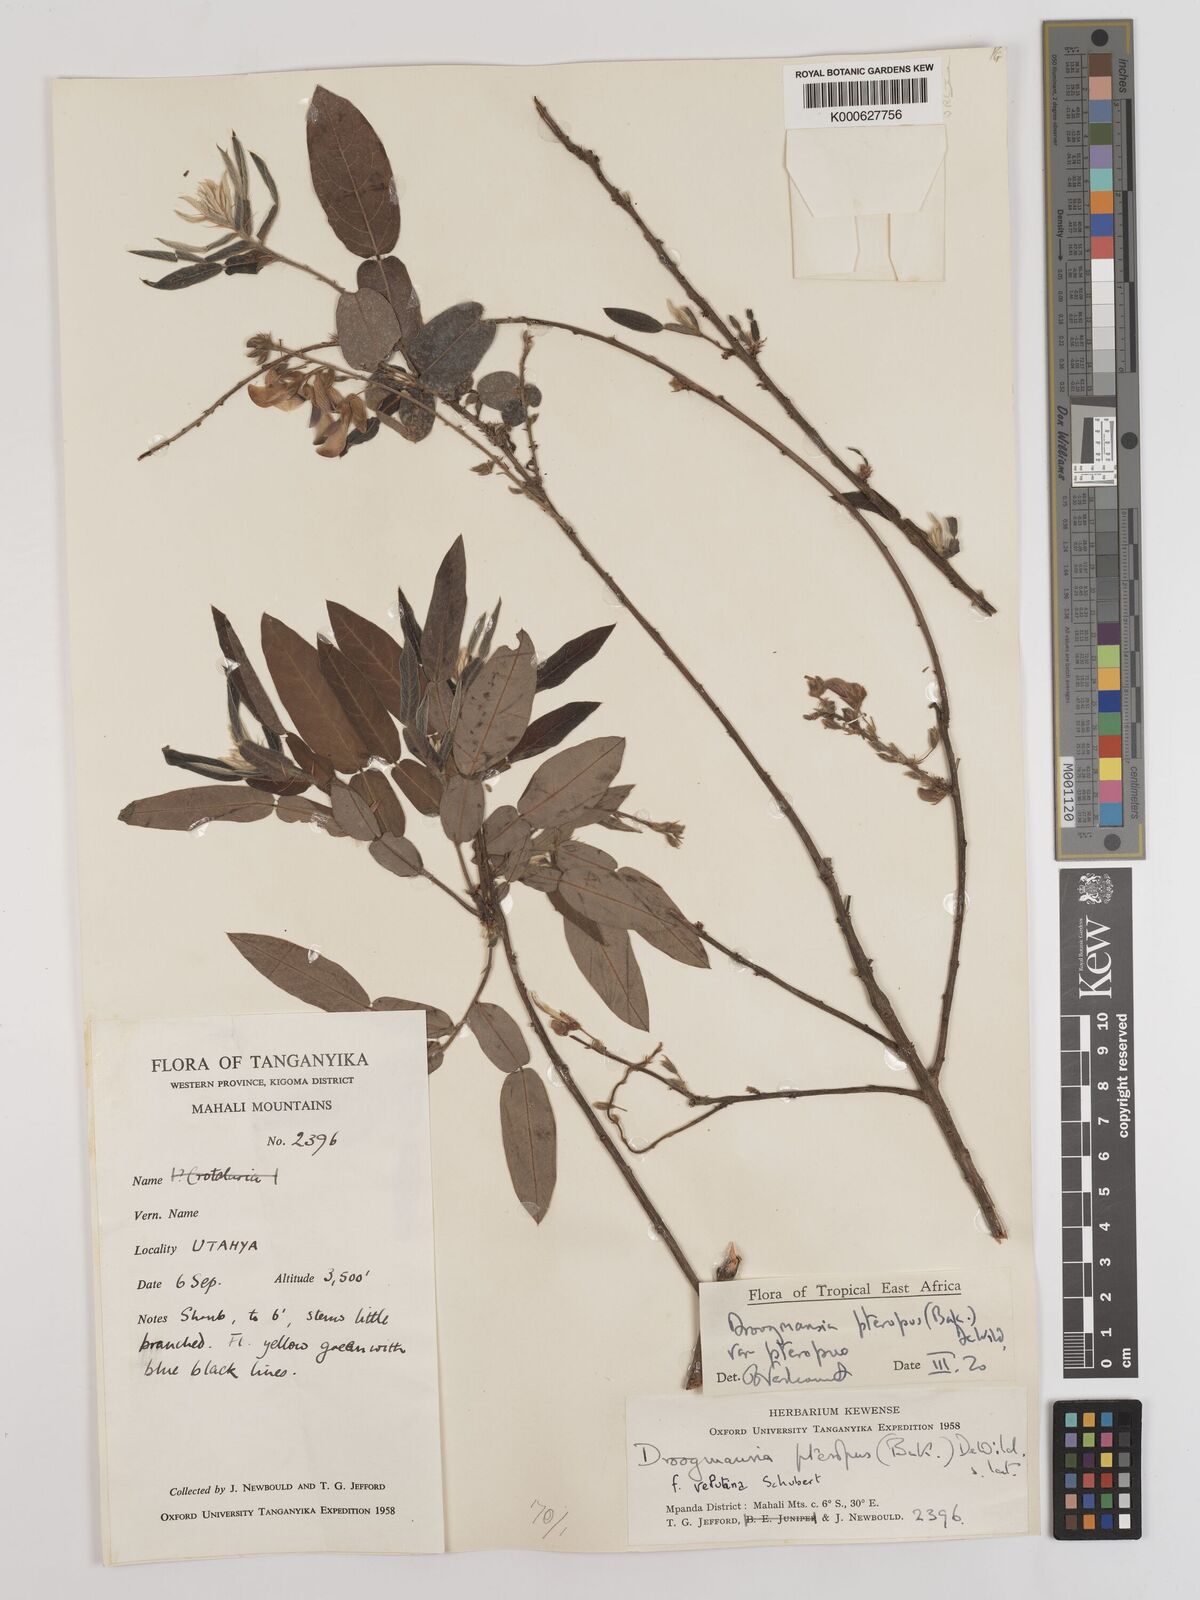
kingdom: Plantae
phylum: Tracheophyta
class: Magnoliopsida
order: Fabales
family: Fabaceae
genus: Droogmansia
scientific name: Droogmansia
